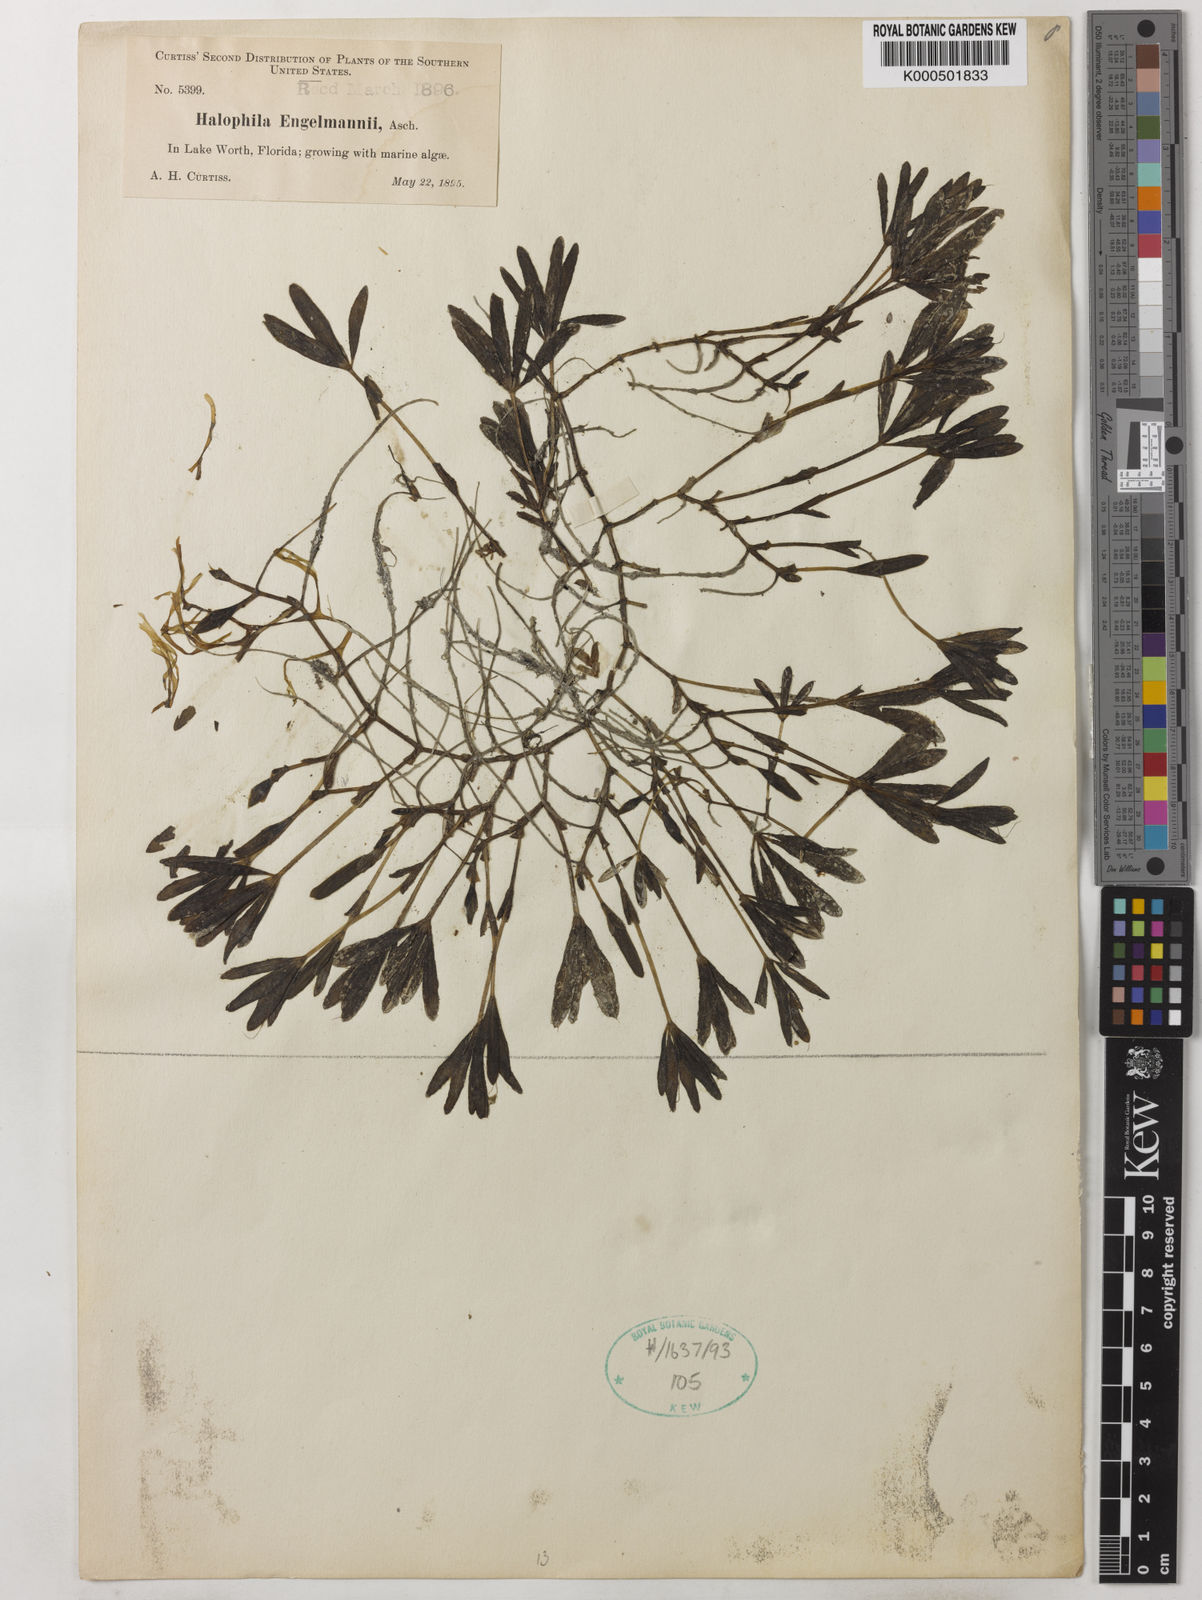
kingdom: Plantae
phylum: Tracheophyta
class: Liliopsida
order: Alismatales
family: Hydrocharitaceae
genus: Halophila
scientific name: Halophila engelmannii
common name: Species code: he
